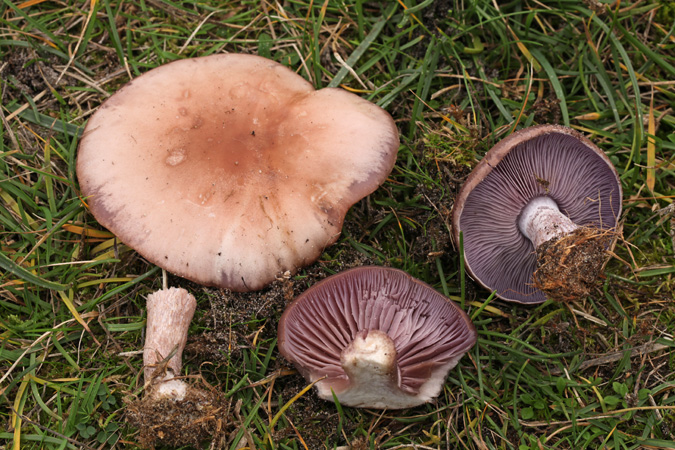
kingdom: Fungi
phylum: Basidiomycota
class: Agaricomycetes
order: Agaricales
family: Tricholomataceae
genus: Lepista
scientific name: Lepista nuda
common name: violet hekseringshat
